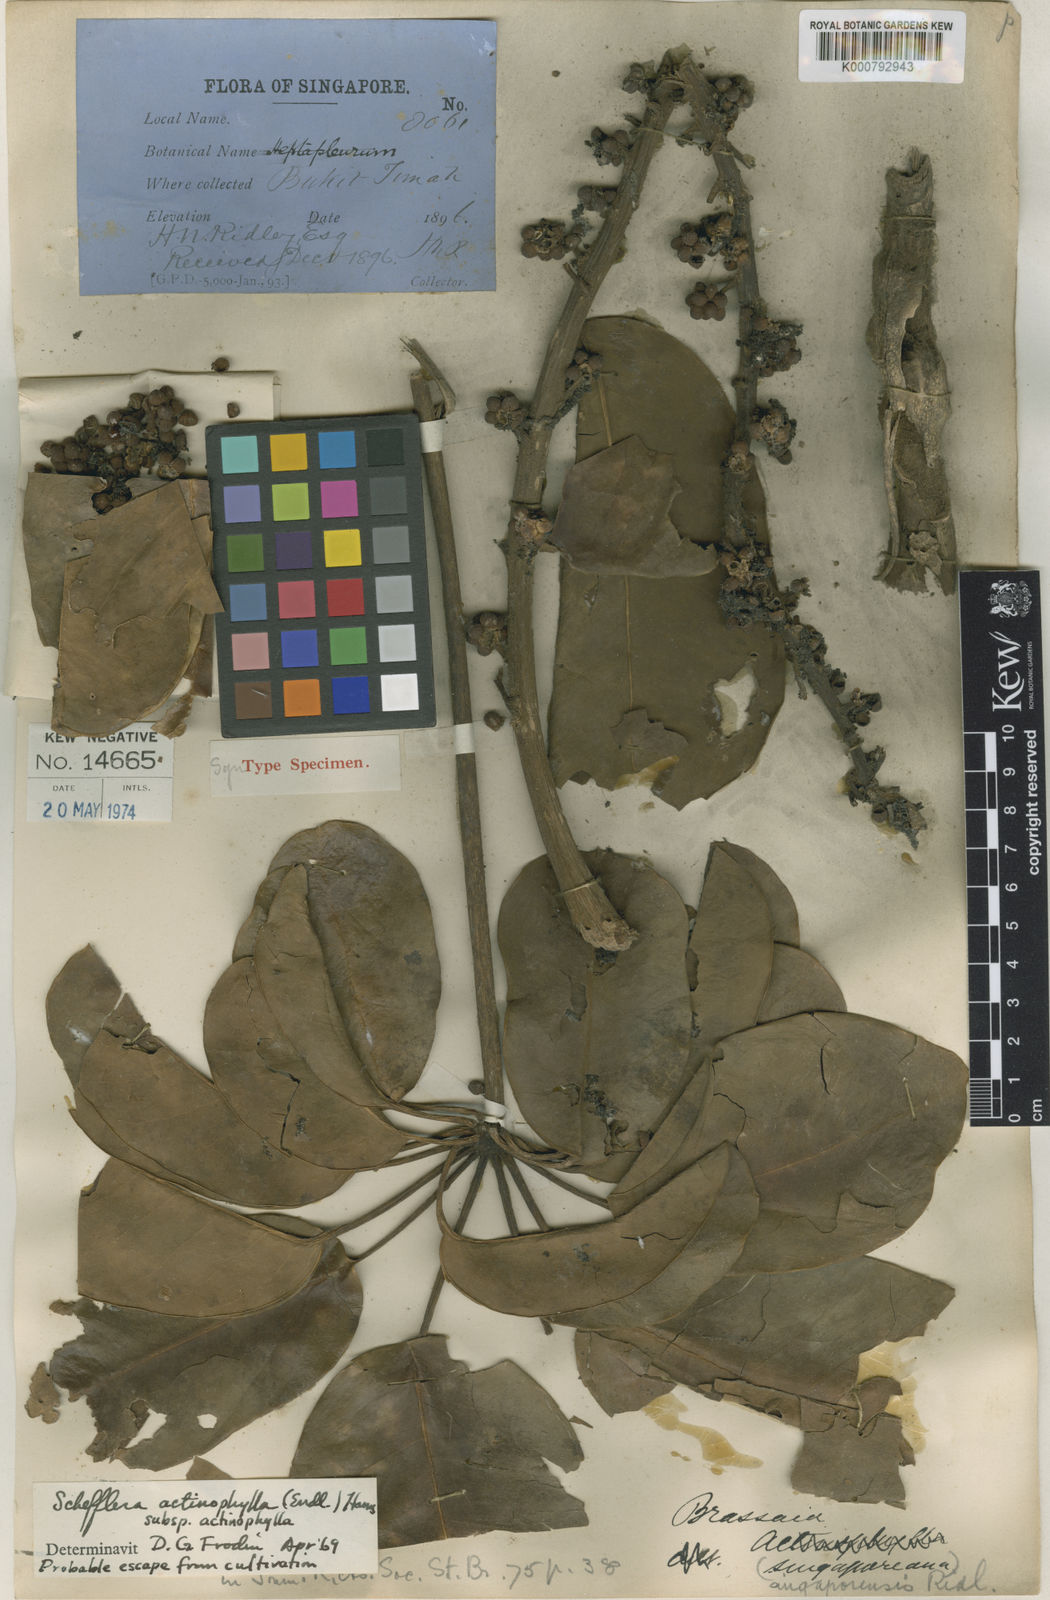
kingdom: Plantae
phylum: Tracheophyta
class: Magnoliopsida
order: Apiales
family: Araliaceae
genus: Heptapleurum
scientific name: Heptapleurum actinophyllum
